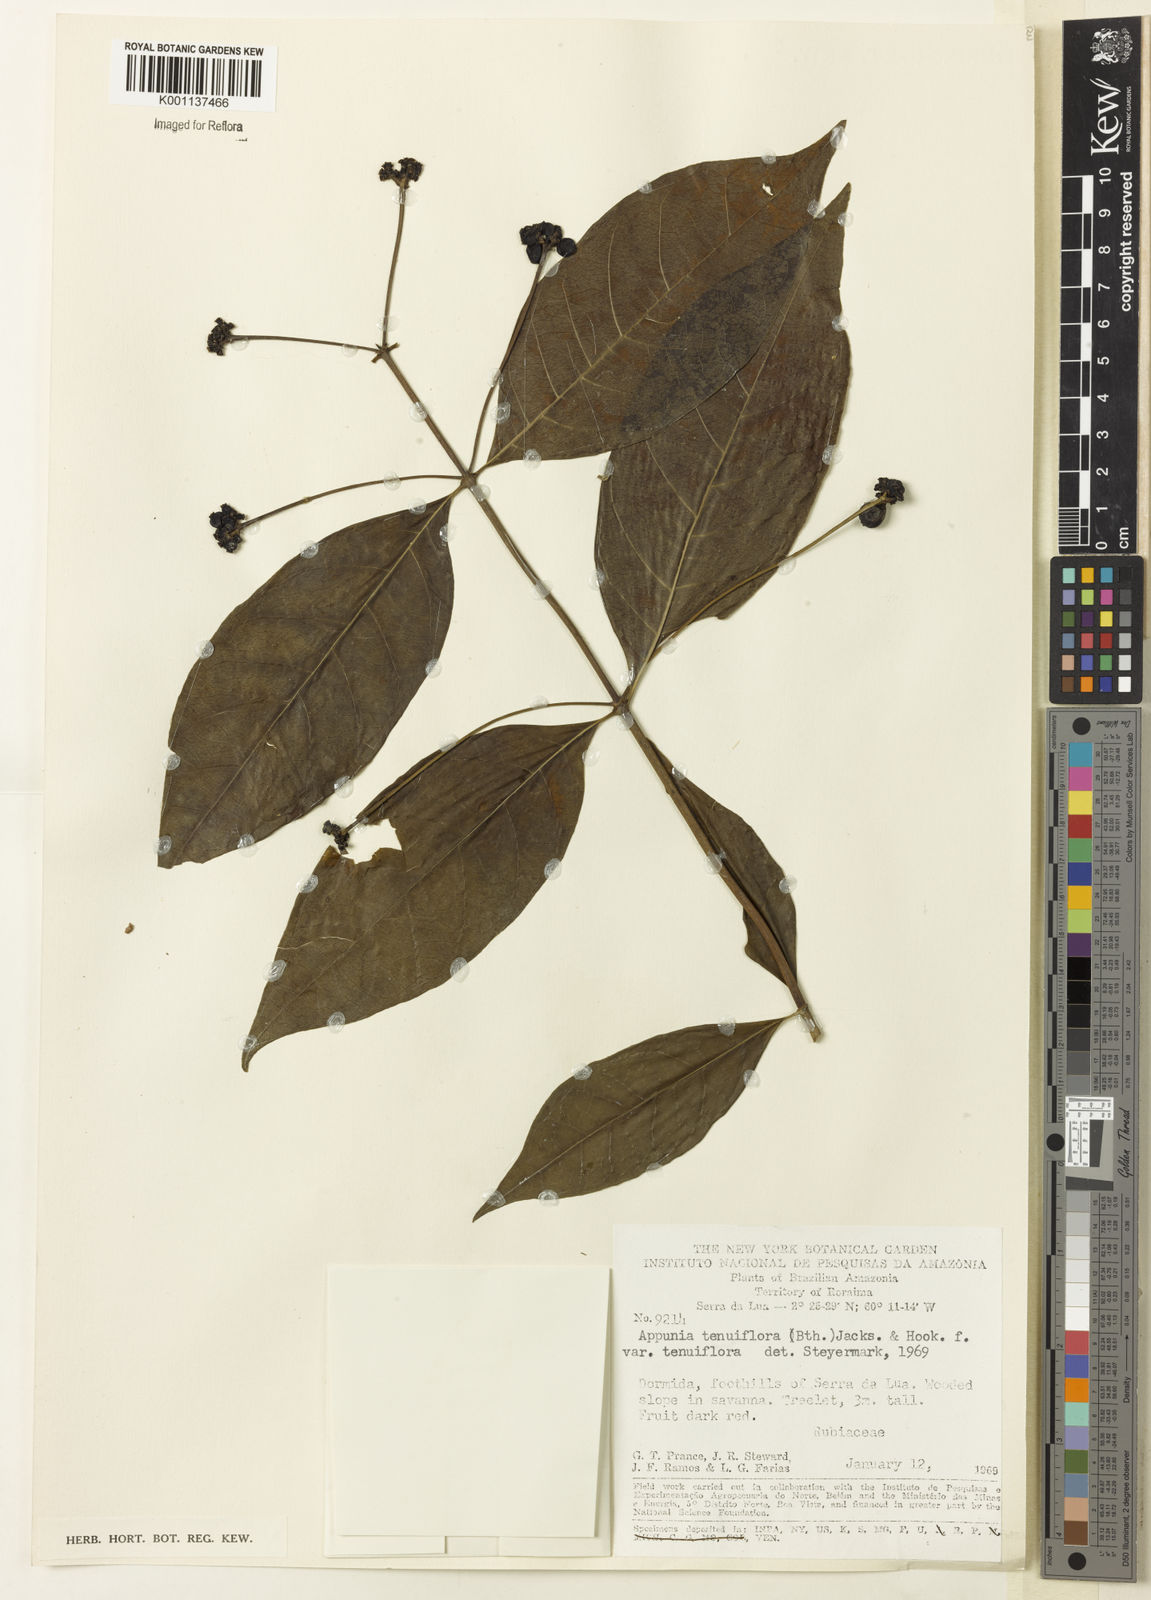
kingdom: Plantae
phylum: Tracheophyta
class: Magnoliopsida
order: Gentianales
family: Rubiaceae
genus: Appunia
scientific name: Appunia tenuiflora
